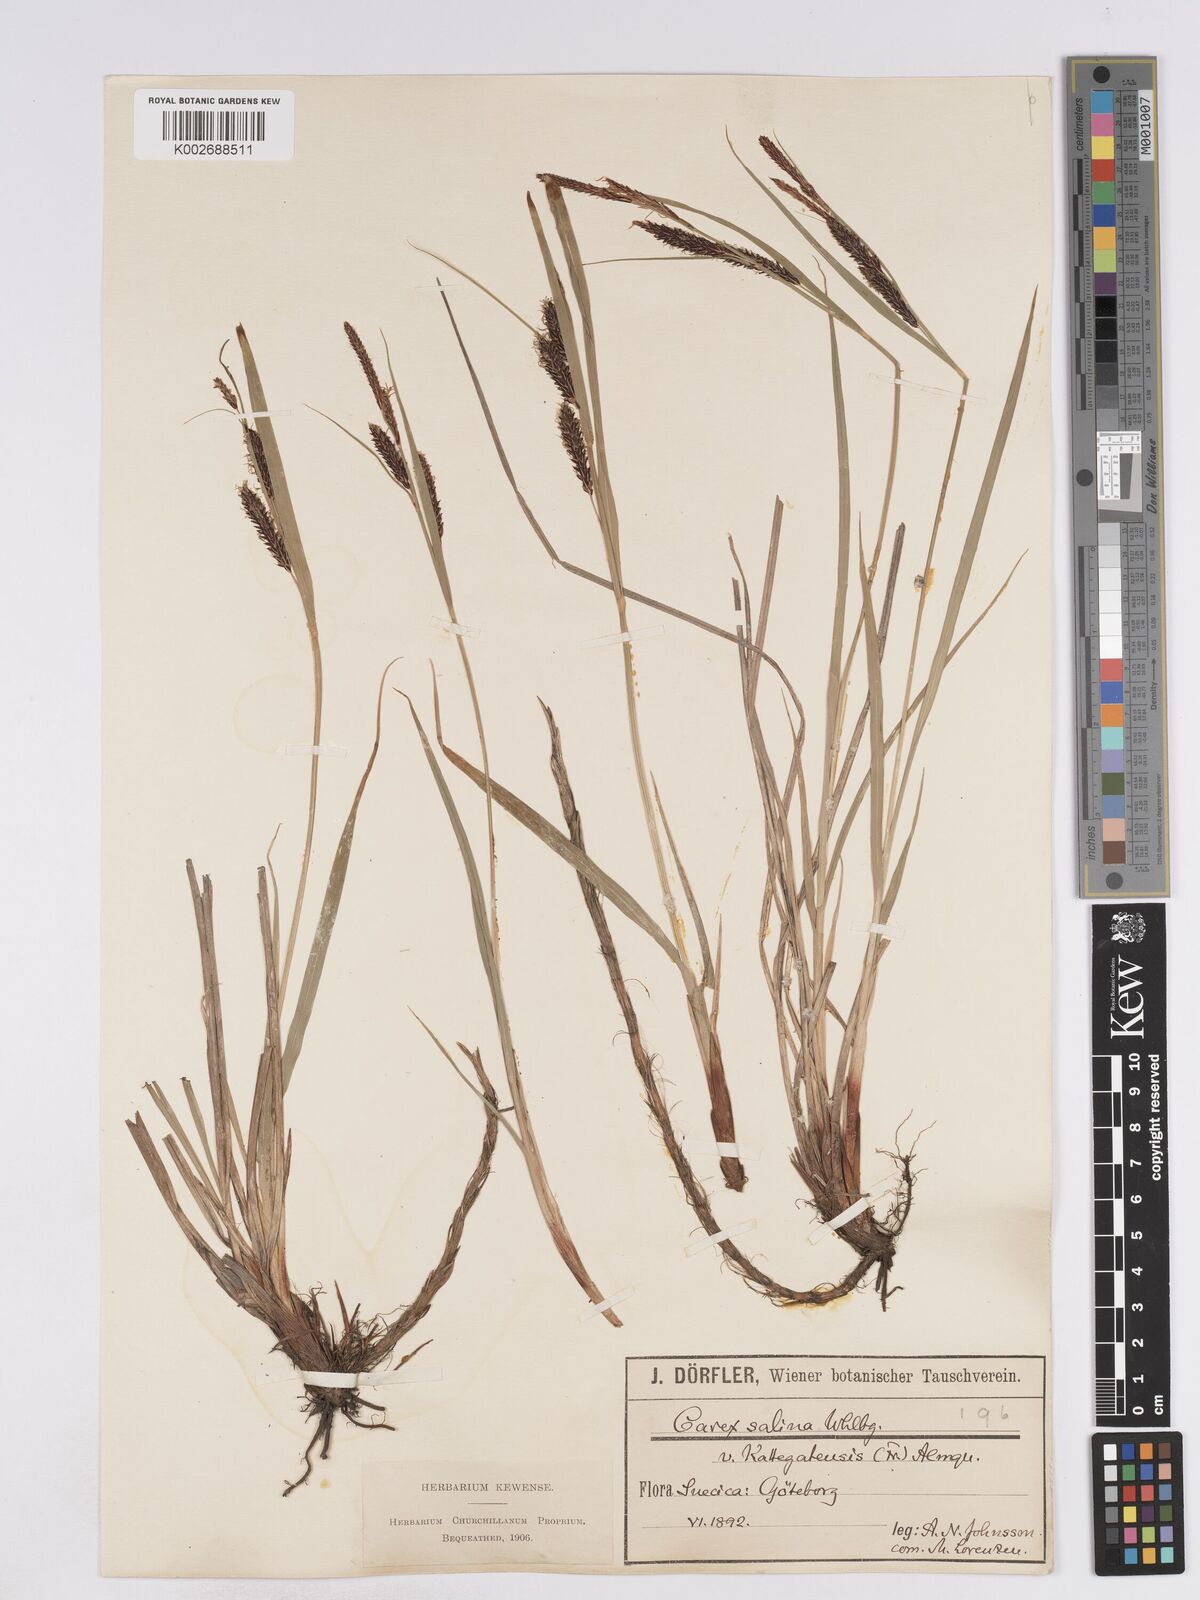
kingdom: Plantae
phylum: Tracheophyta
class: Liliopsida
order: Poales
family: Cyperaceae
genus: Carex
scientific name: Carex recta
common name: Estuarine sedge
